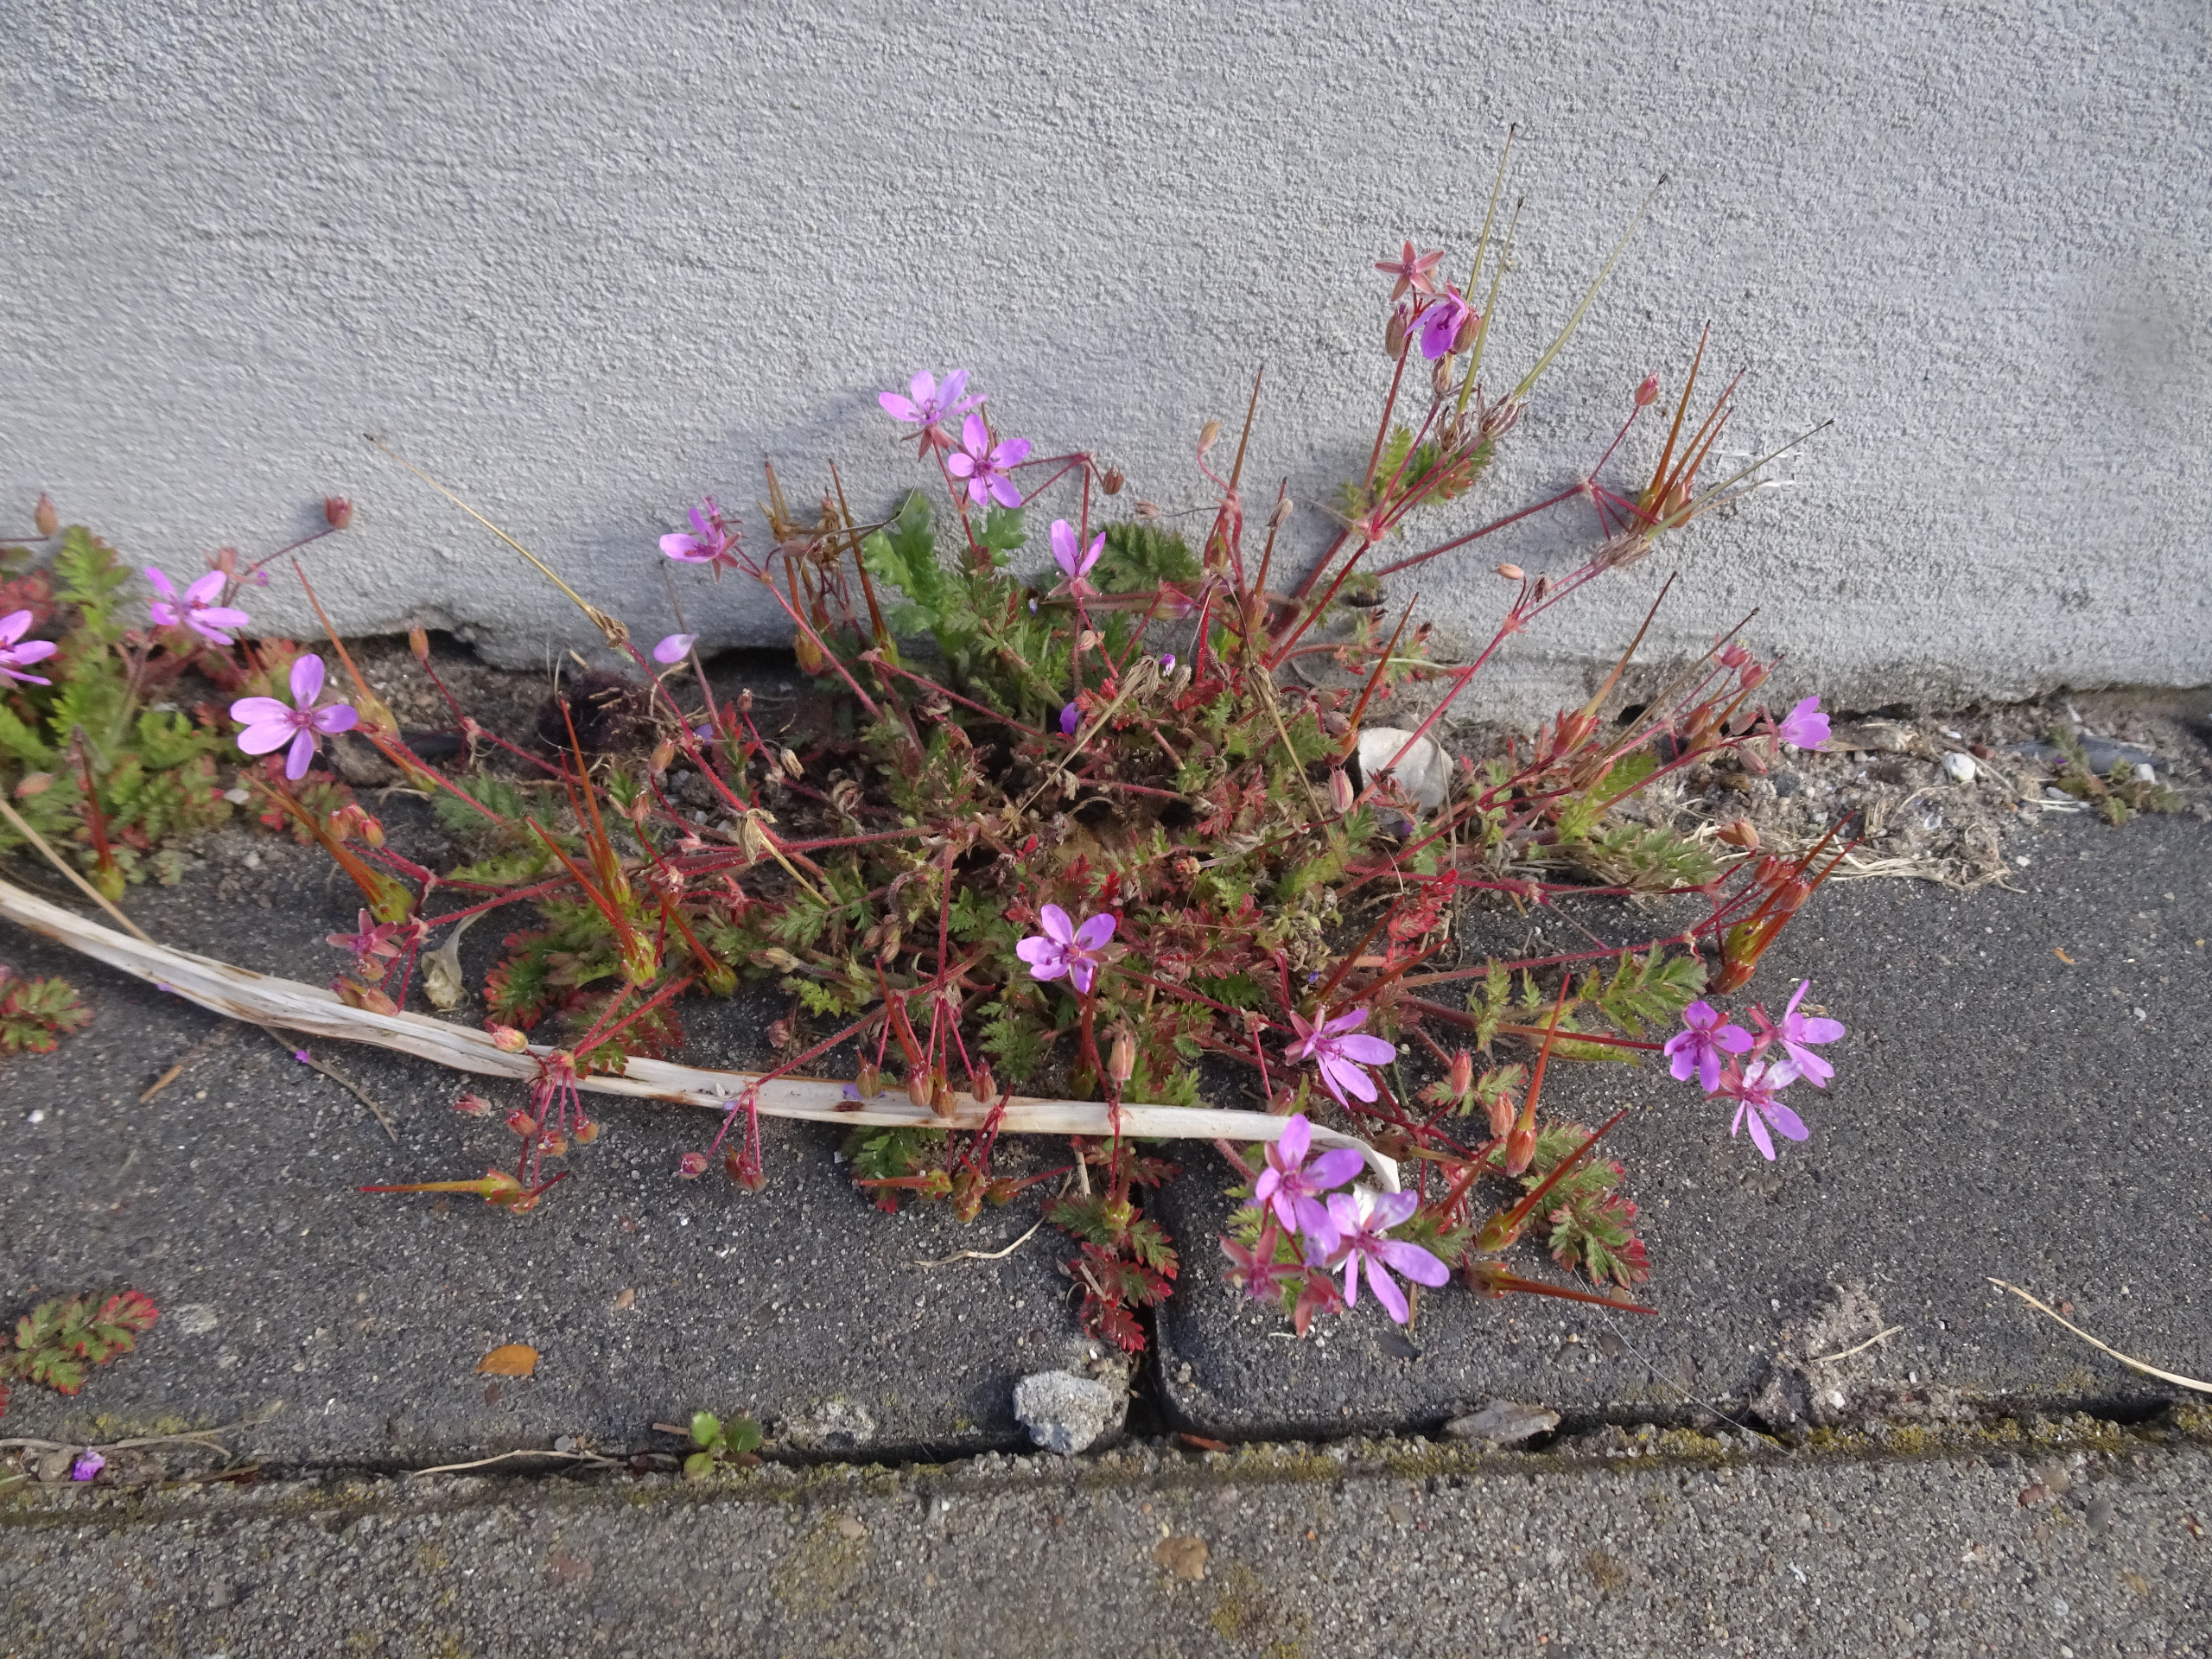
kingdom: Plantae
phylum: Tracheophyta
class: Magnoliopsida
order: Geraniales
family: Geraniaceae
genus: Erodium
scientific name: Erodium cicutarium
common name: Hejrenæb
